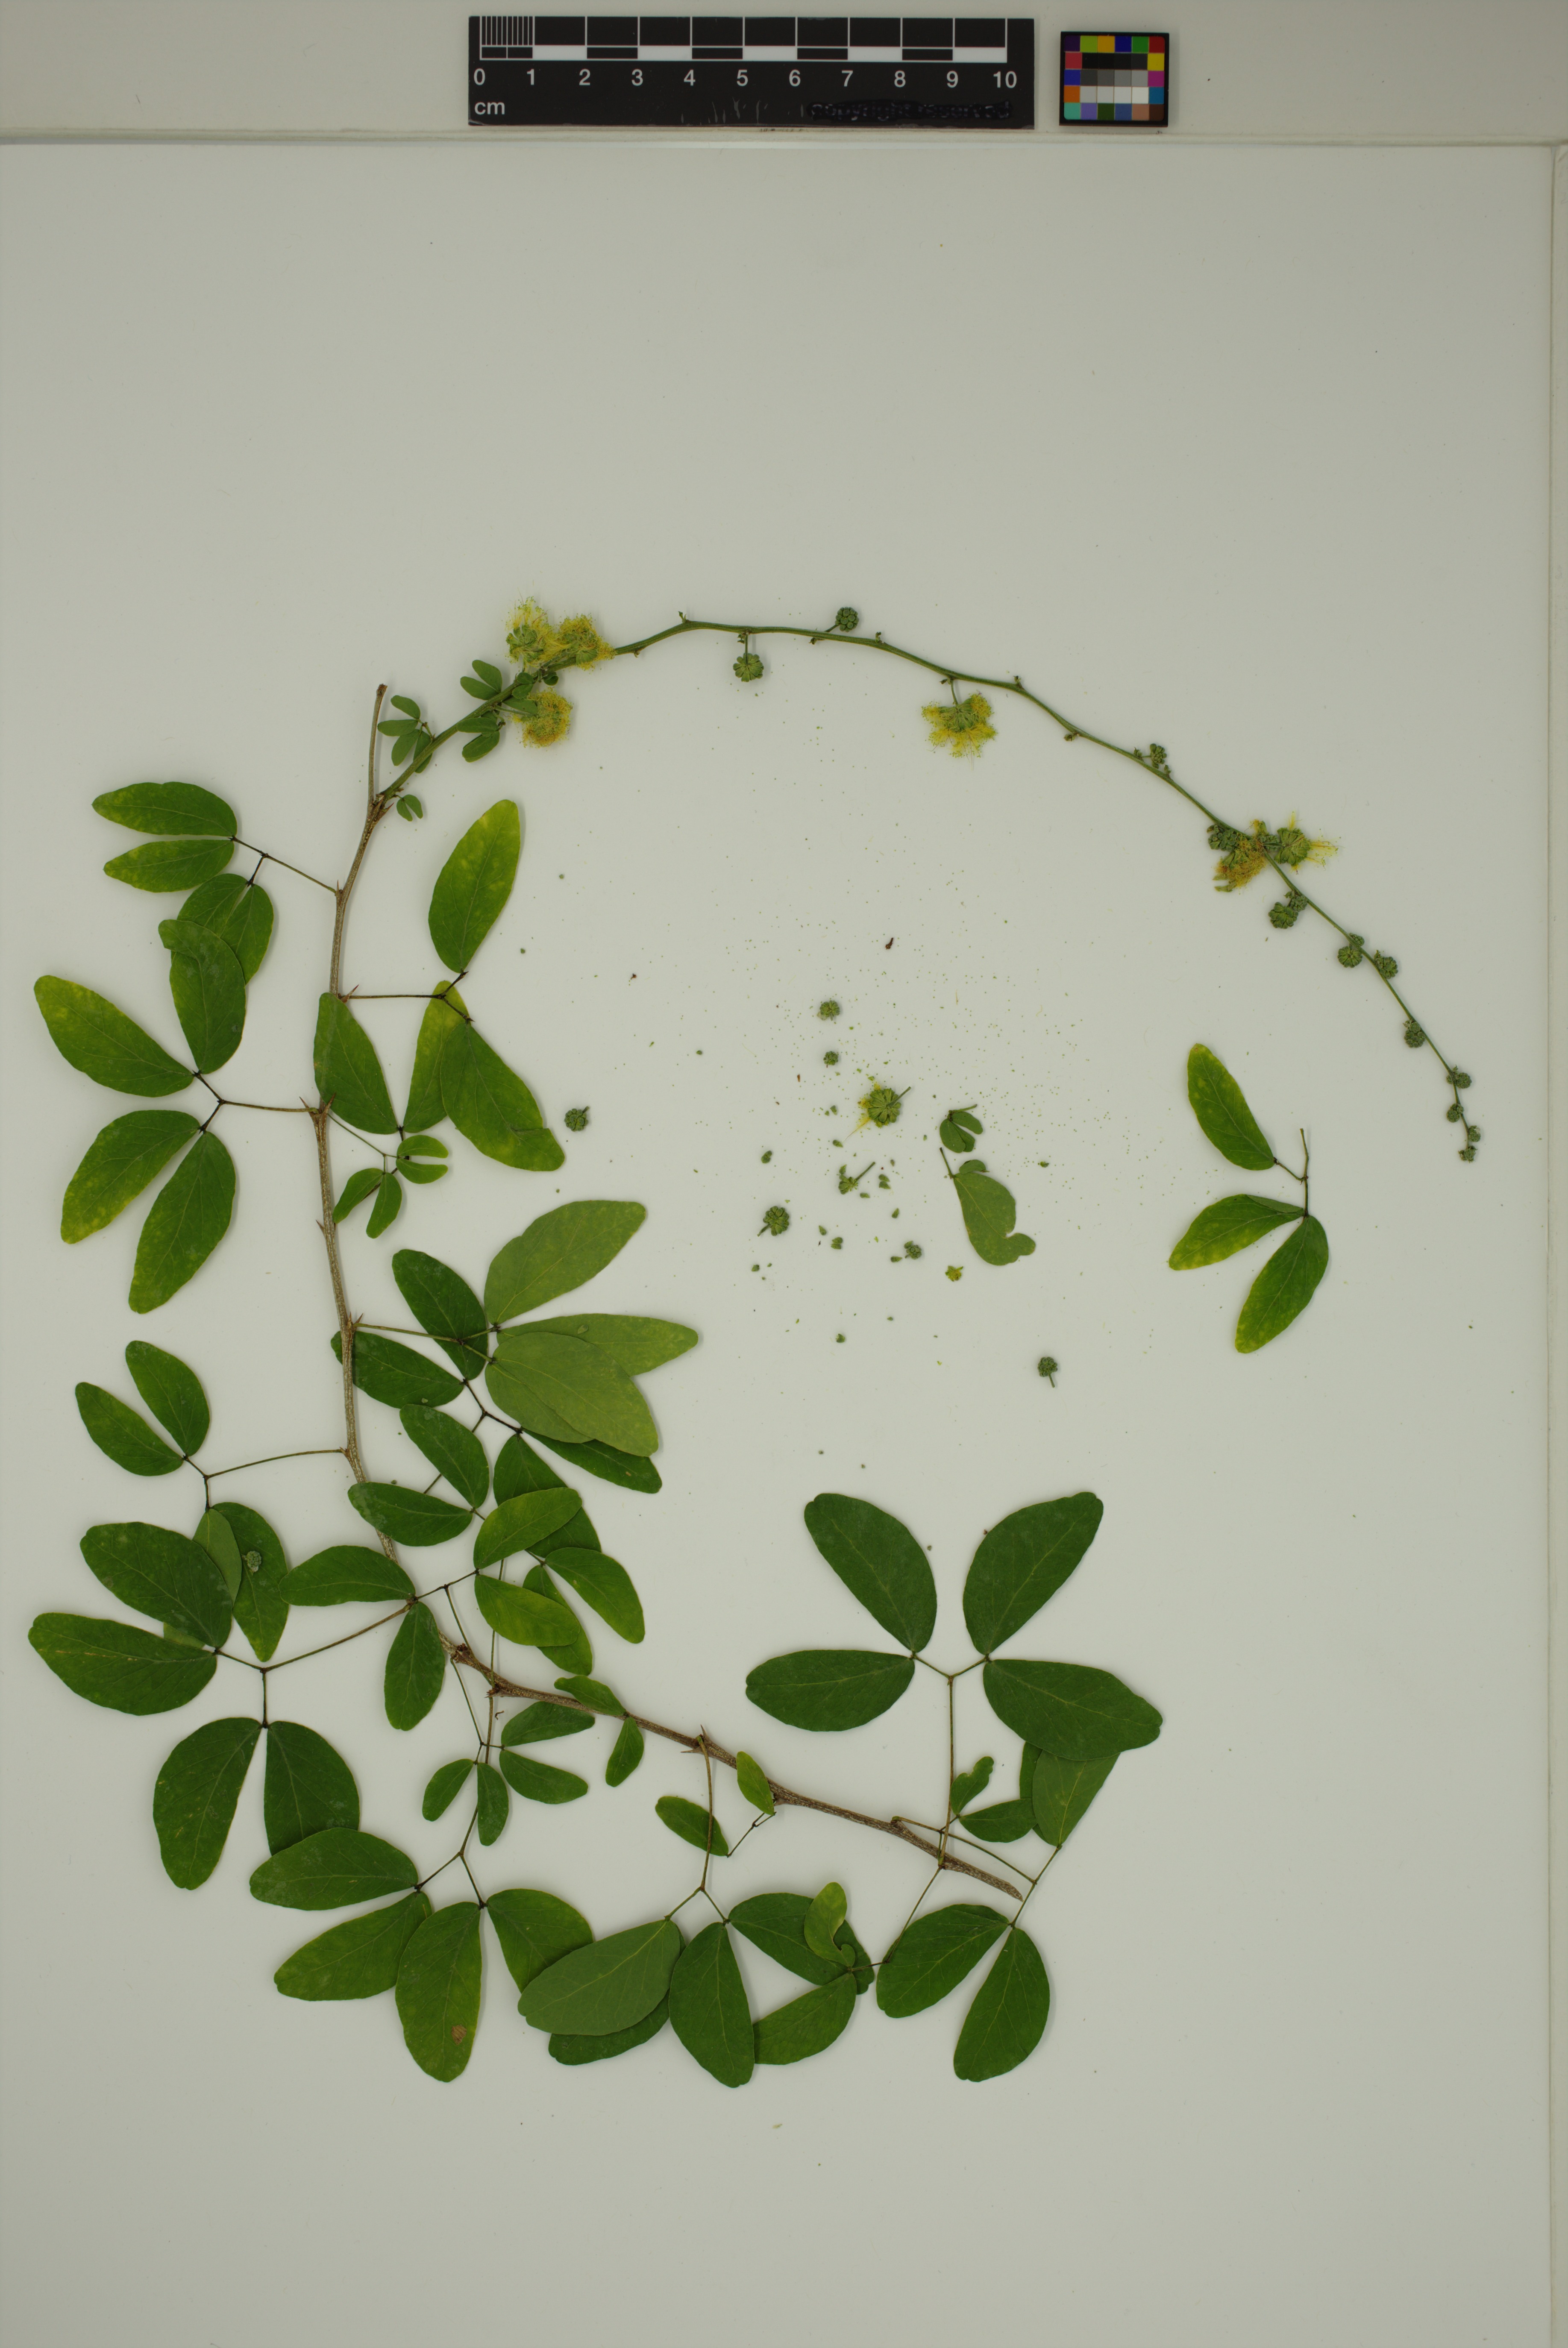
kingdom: Plantae
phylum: Tracheophyta
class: Magnoliopsida
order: Fabales
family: Fabaceae
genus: Pithecellobium
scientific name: Pithecellobium dulce
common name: Monkeypod
